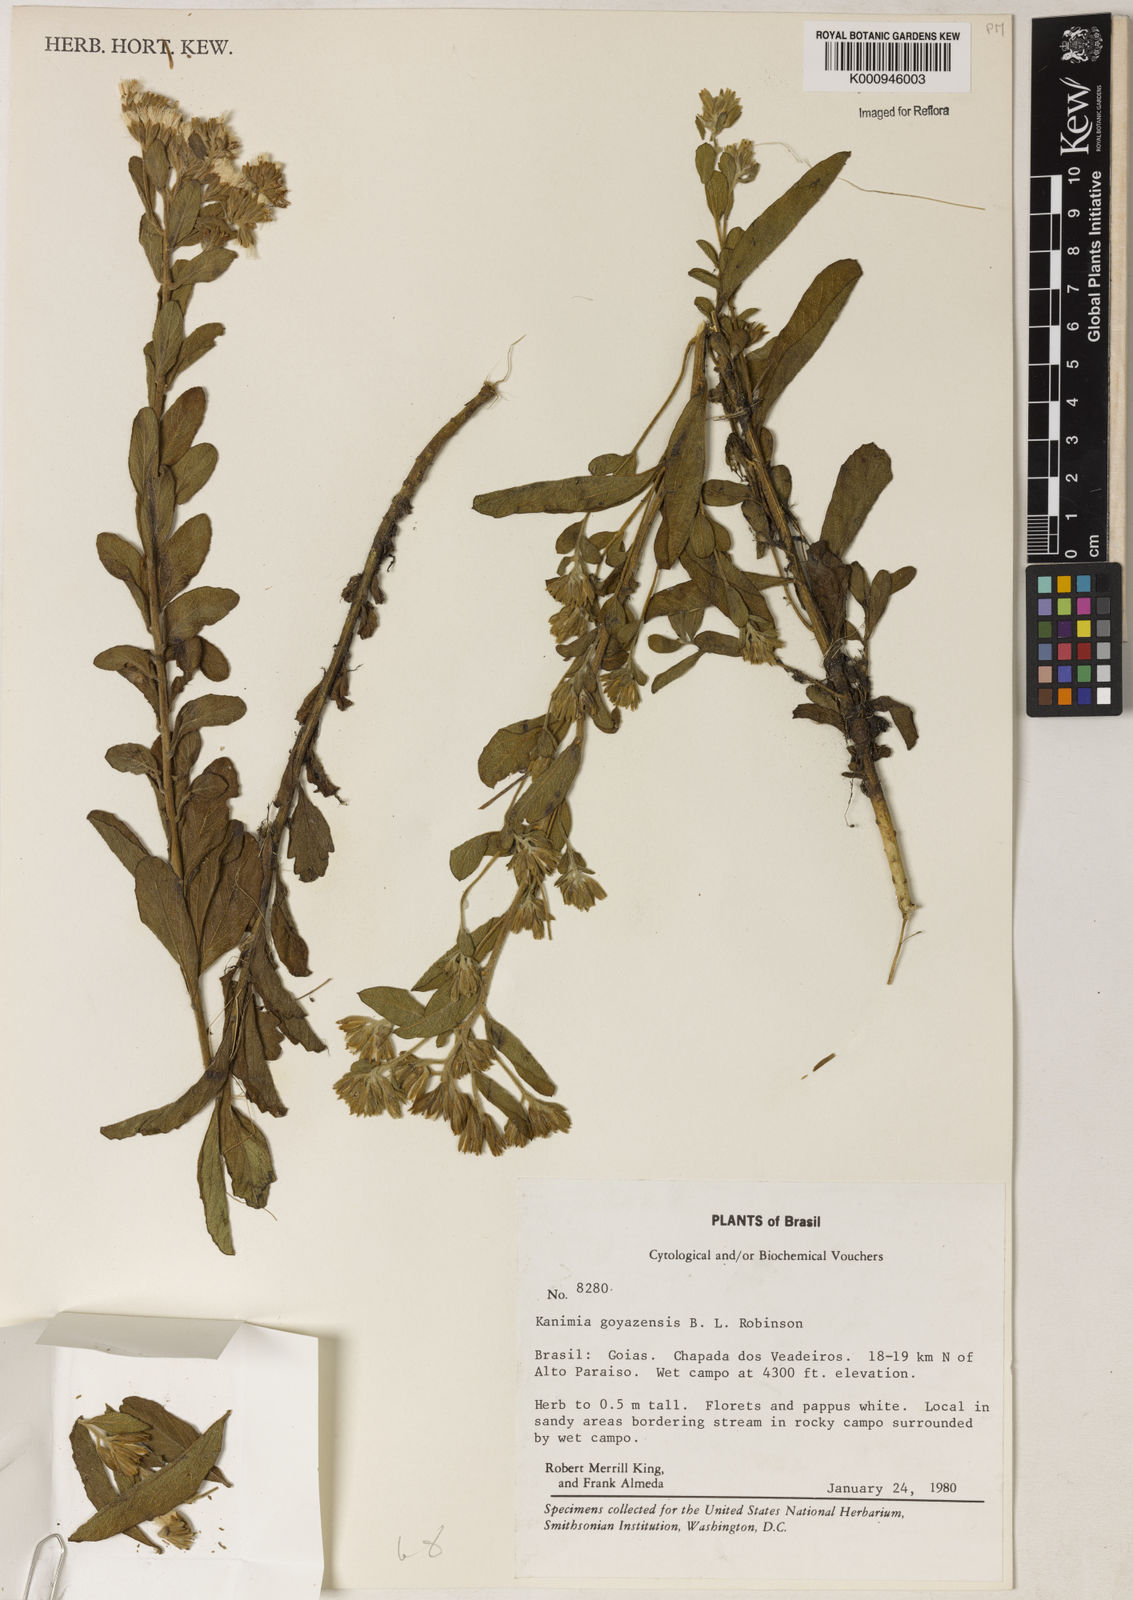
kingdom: Plantae
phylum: Tracheophyta
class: Magnoliopsida
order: Asterales
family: Asteraceae
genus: Mikania
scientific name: Mikania goyazensis
